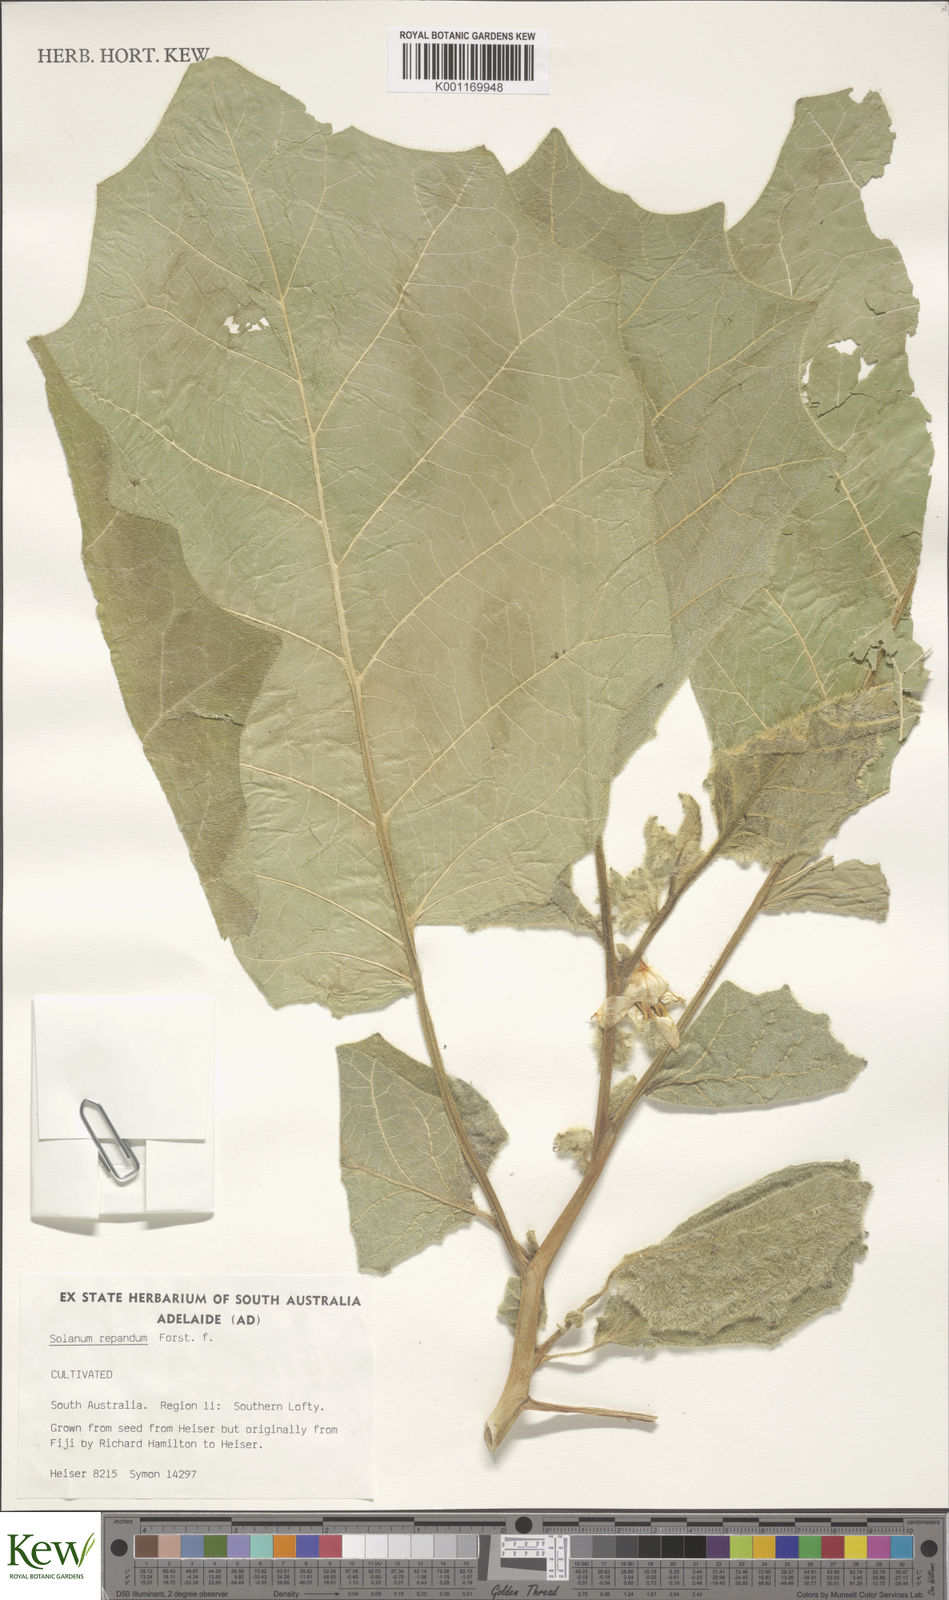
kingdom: Plantae
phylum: Tracheophyta
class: Magnoliopsida
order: Solanales
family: Solanaceae
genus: Solanum
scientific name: Solanum repandum
